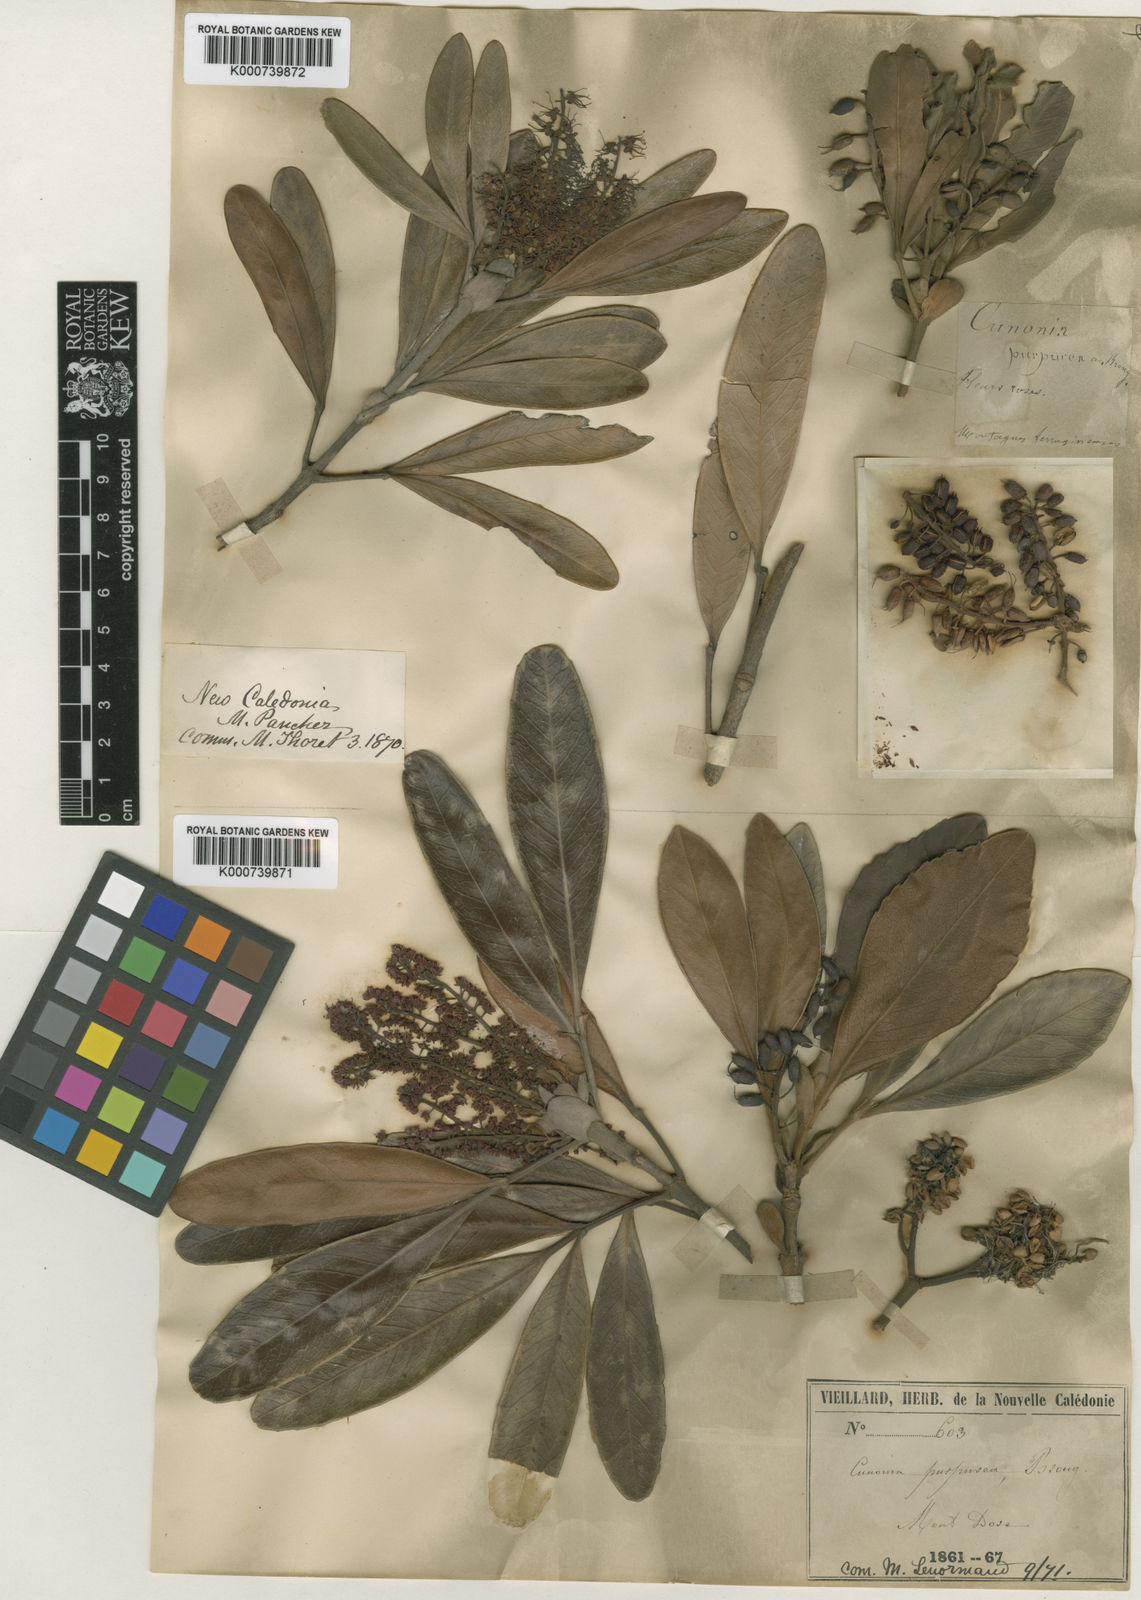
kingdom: Plantae
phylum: Tracheophyta
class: Magnoliopsida
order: Oxalidales
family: Cunoniaceae
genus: Cunonia
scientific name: Cunonia purpurea
